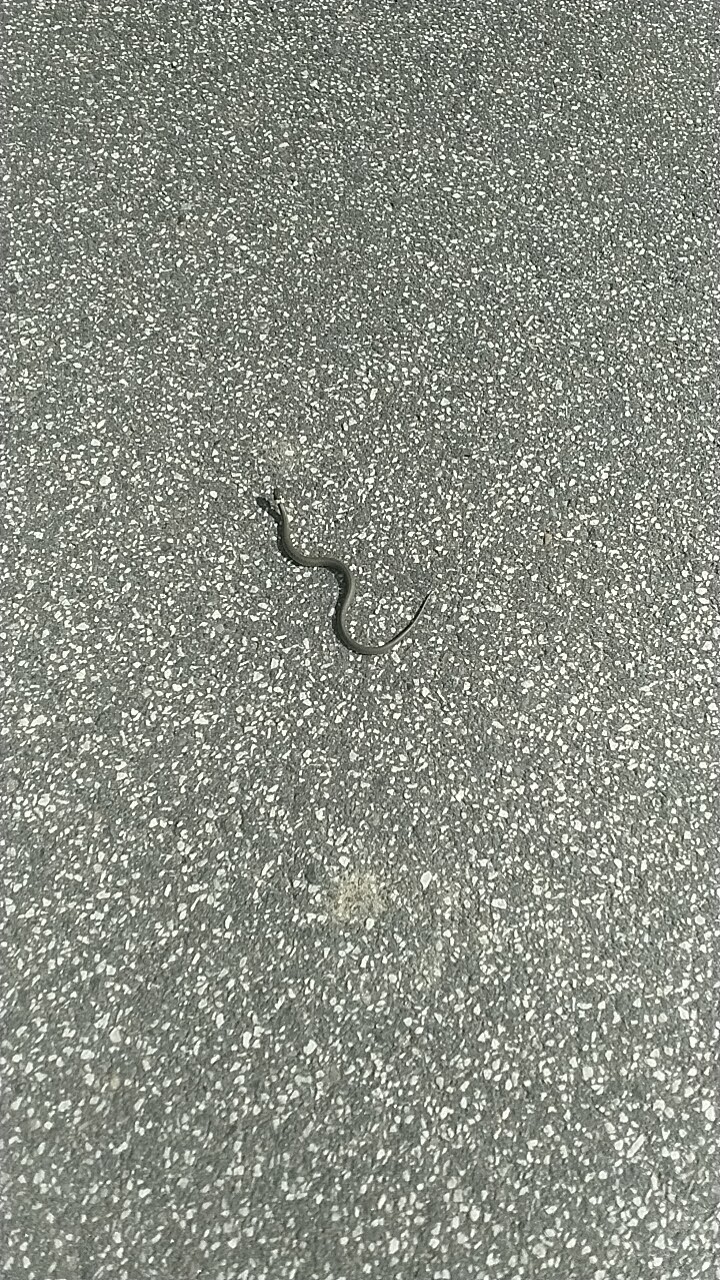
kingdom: Animalia
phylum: Chordata
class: Squamata
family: Colubridae
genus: Natrix
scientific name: Natrix natrix
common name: Snog
